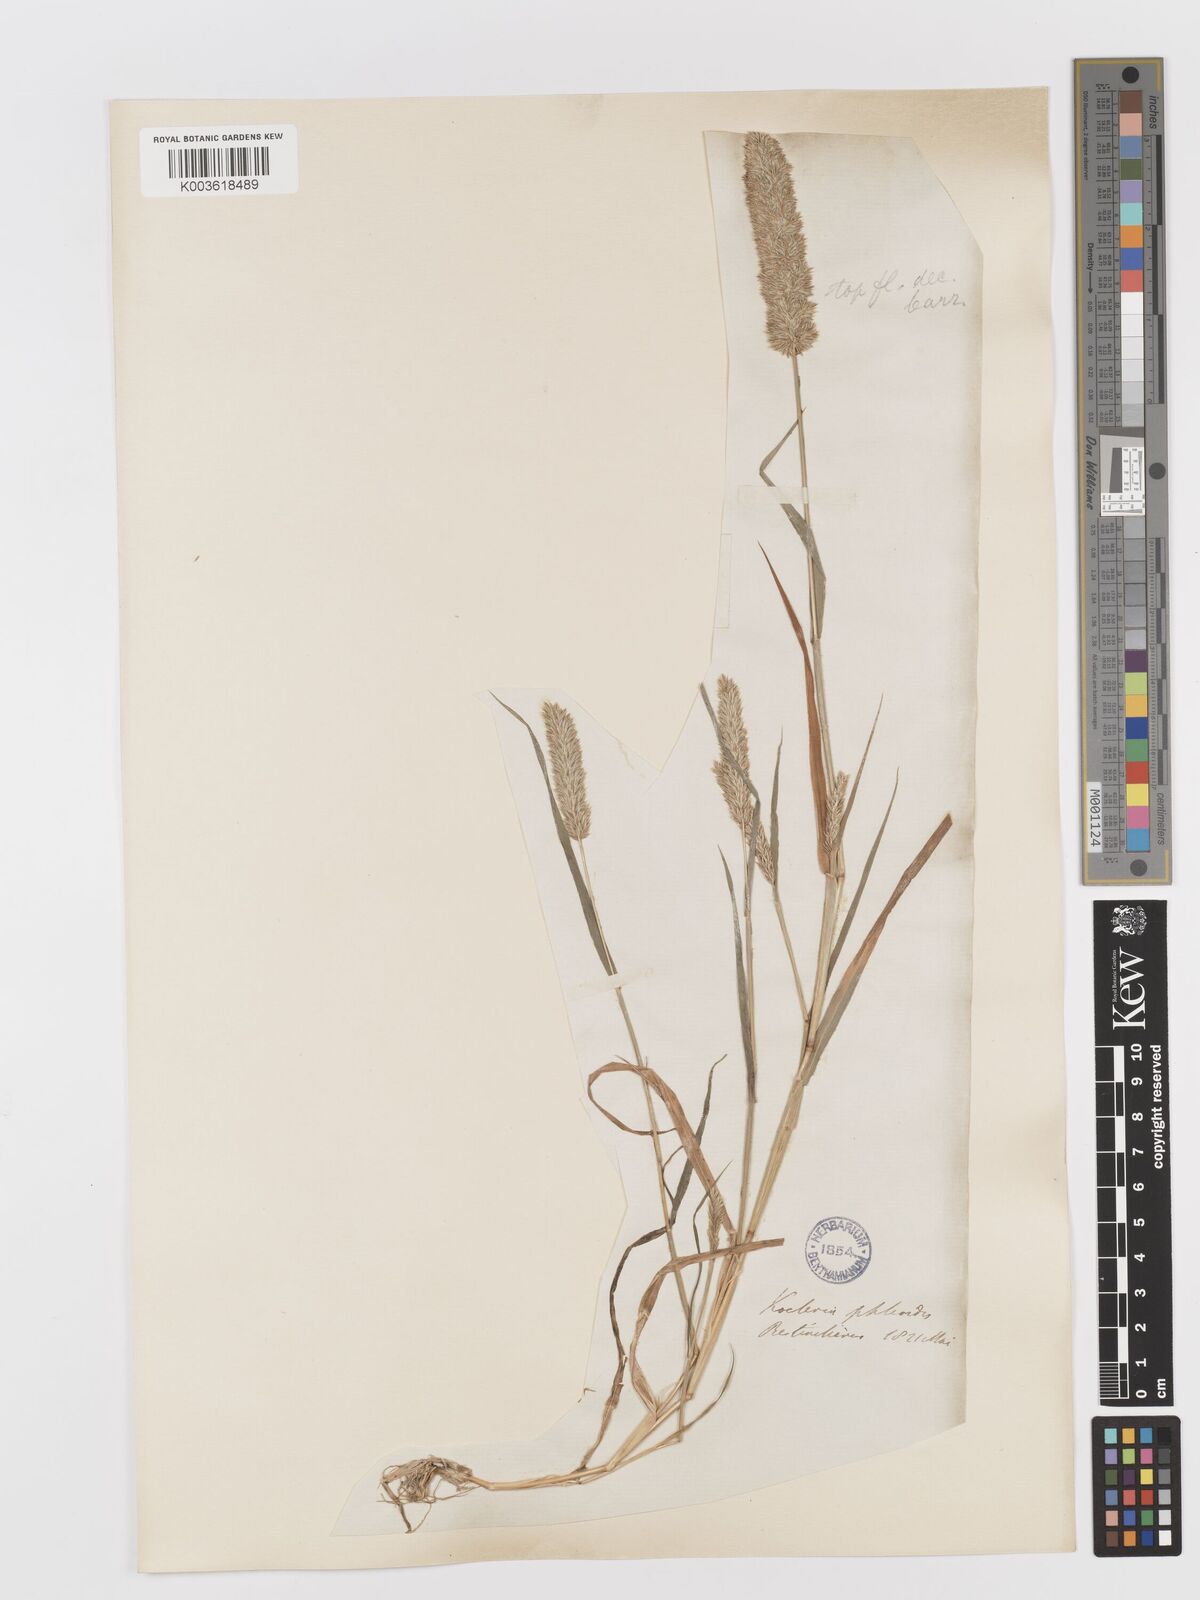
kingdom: Plantae
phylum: Tracheophyta
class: Liliopsida
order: Poales
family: Poaceae
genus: Rostraria
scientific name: Rostraria cristata
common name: Mediterranean hair-grass
